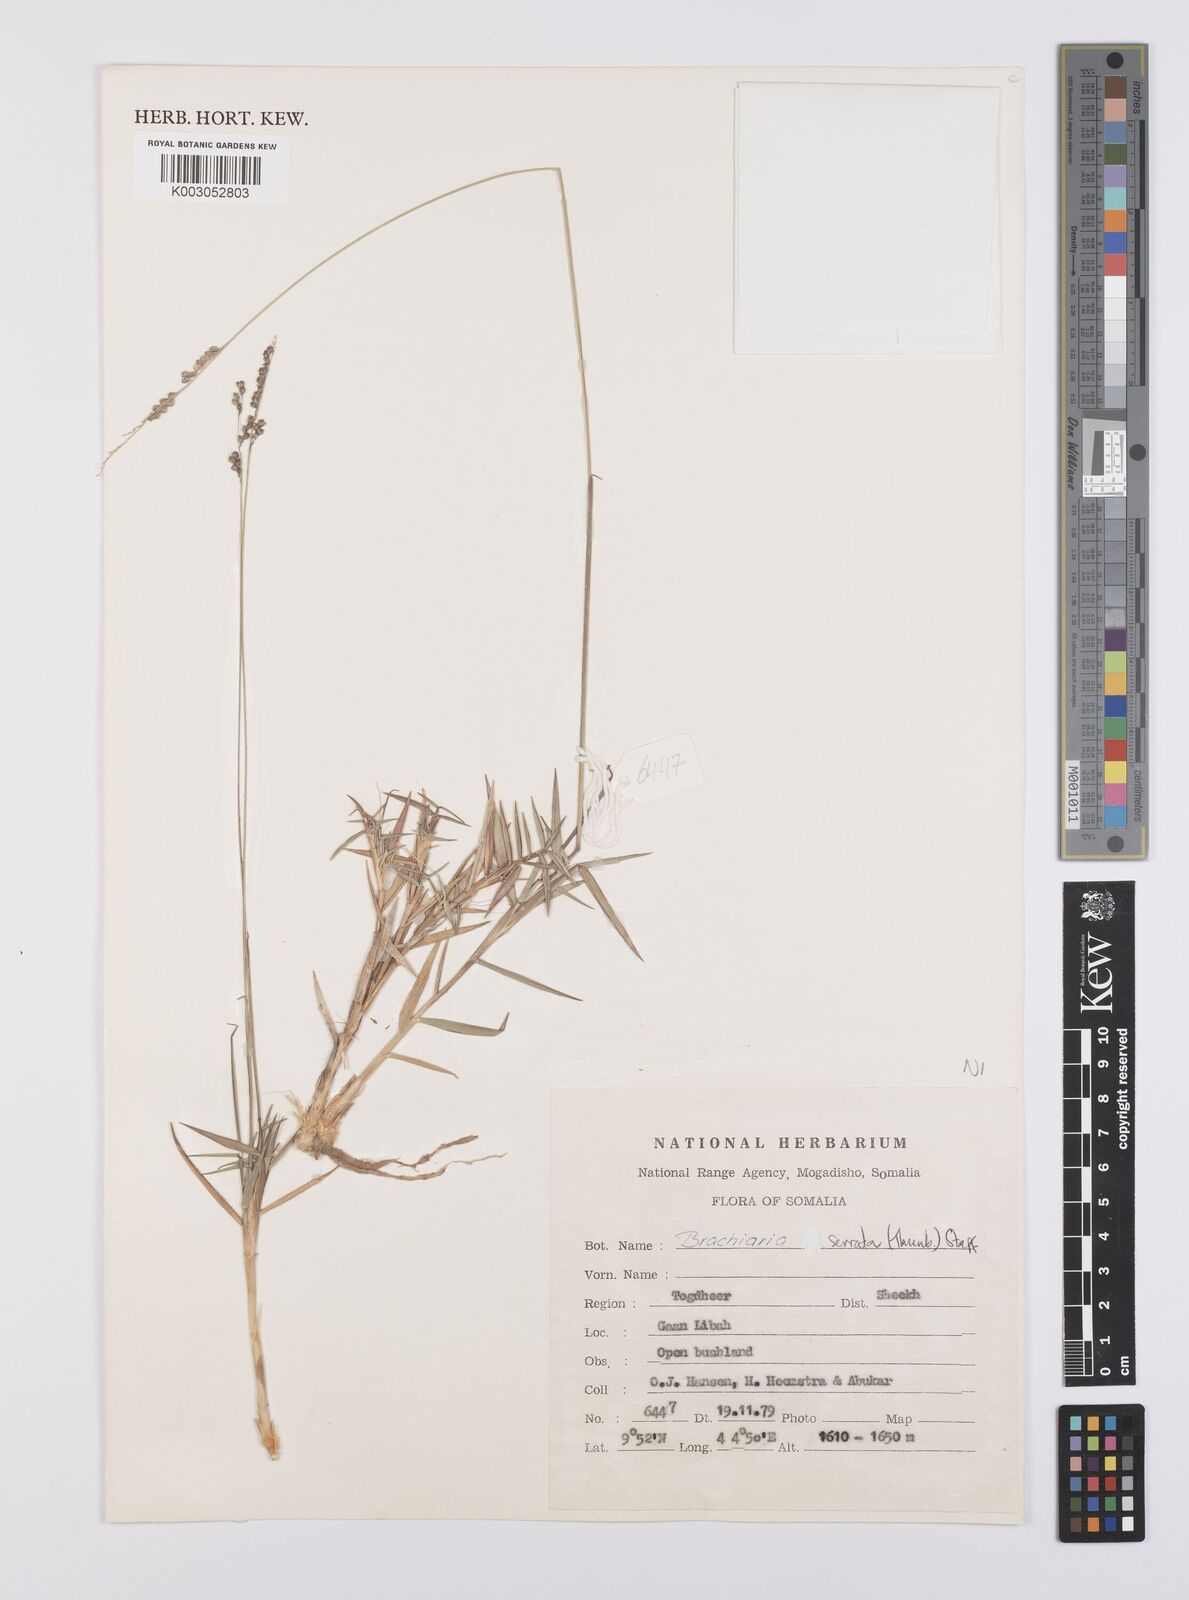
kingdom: Plantae
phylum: Tracheophyta
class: Liliopsida
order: Poales
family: Poaceae
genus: Urochloa
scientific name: Urochloa serrata
